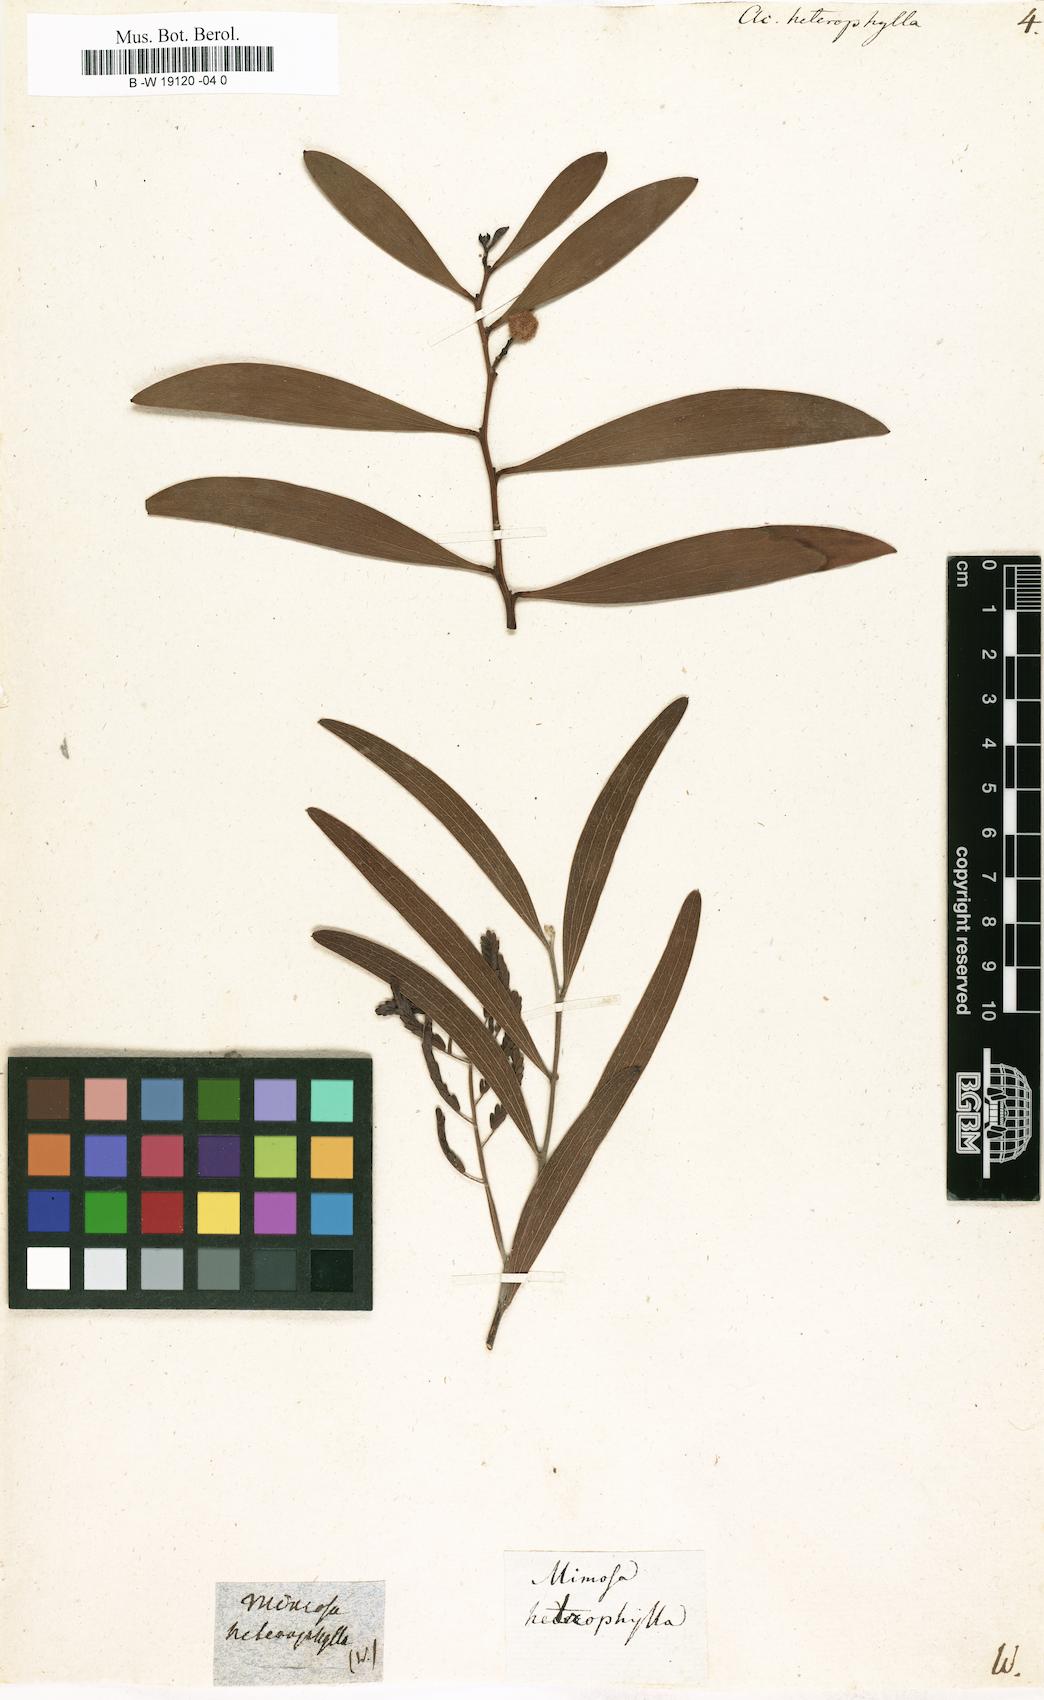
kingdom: Plantae
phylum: Tracheophyta
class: Magnoliopsida
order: Fabales
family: Fabaceae
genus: Acacia
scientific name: Acacia heterophylla
